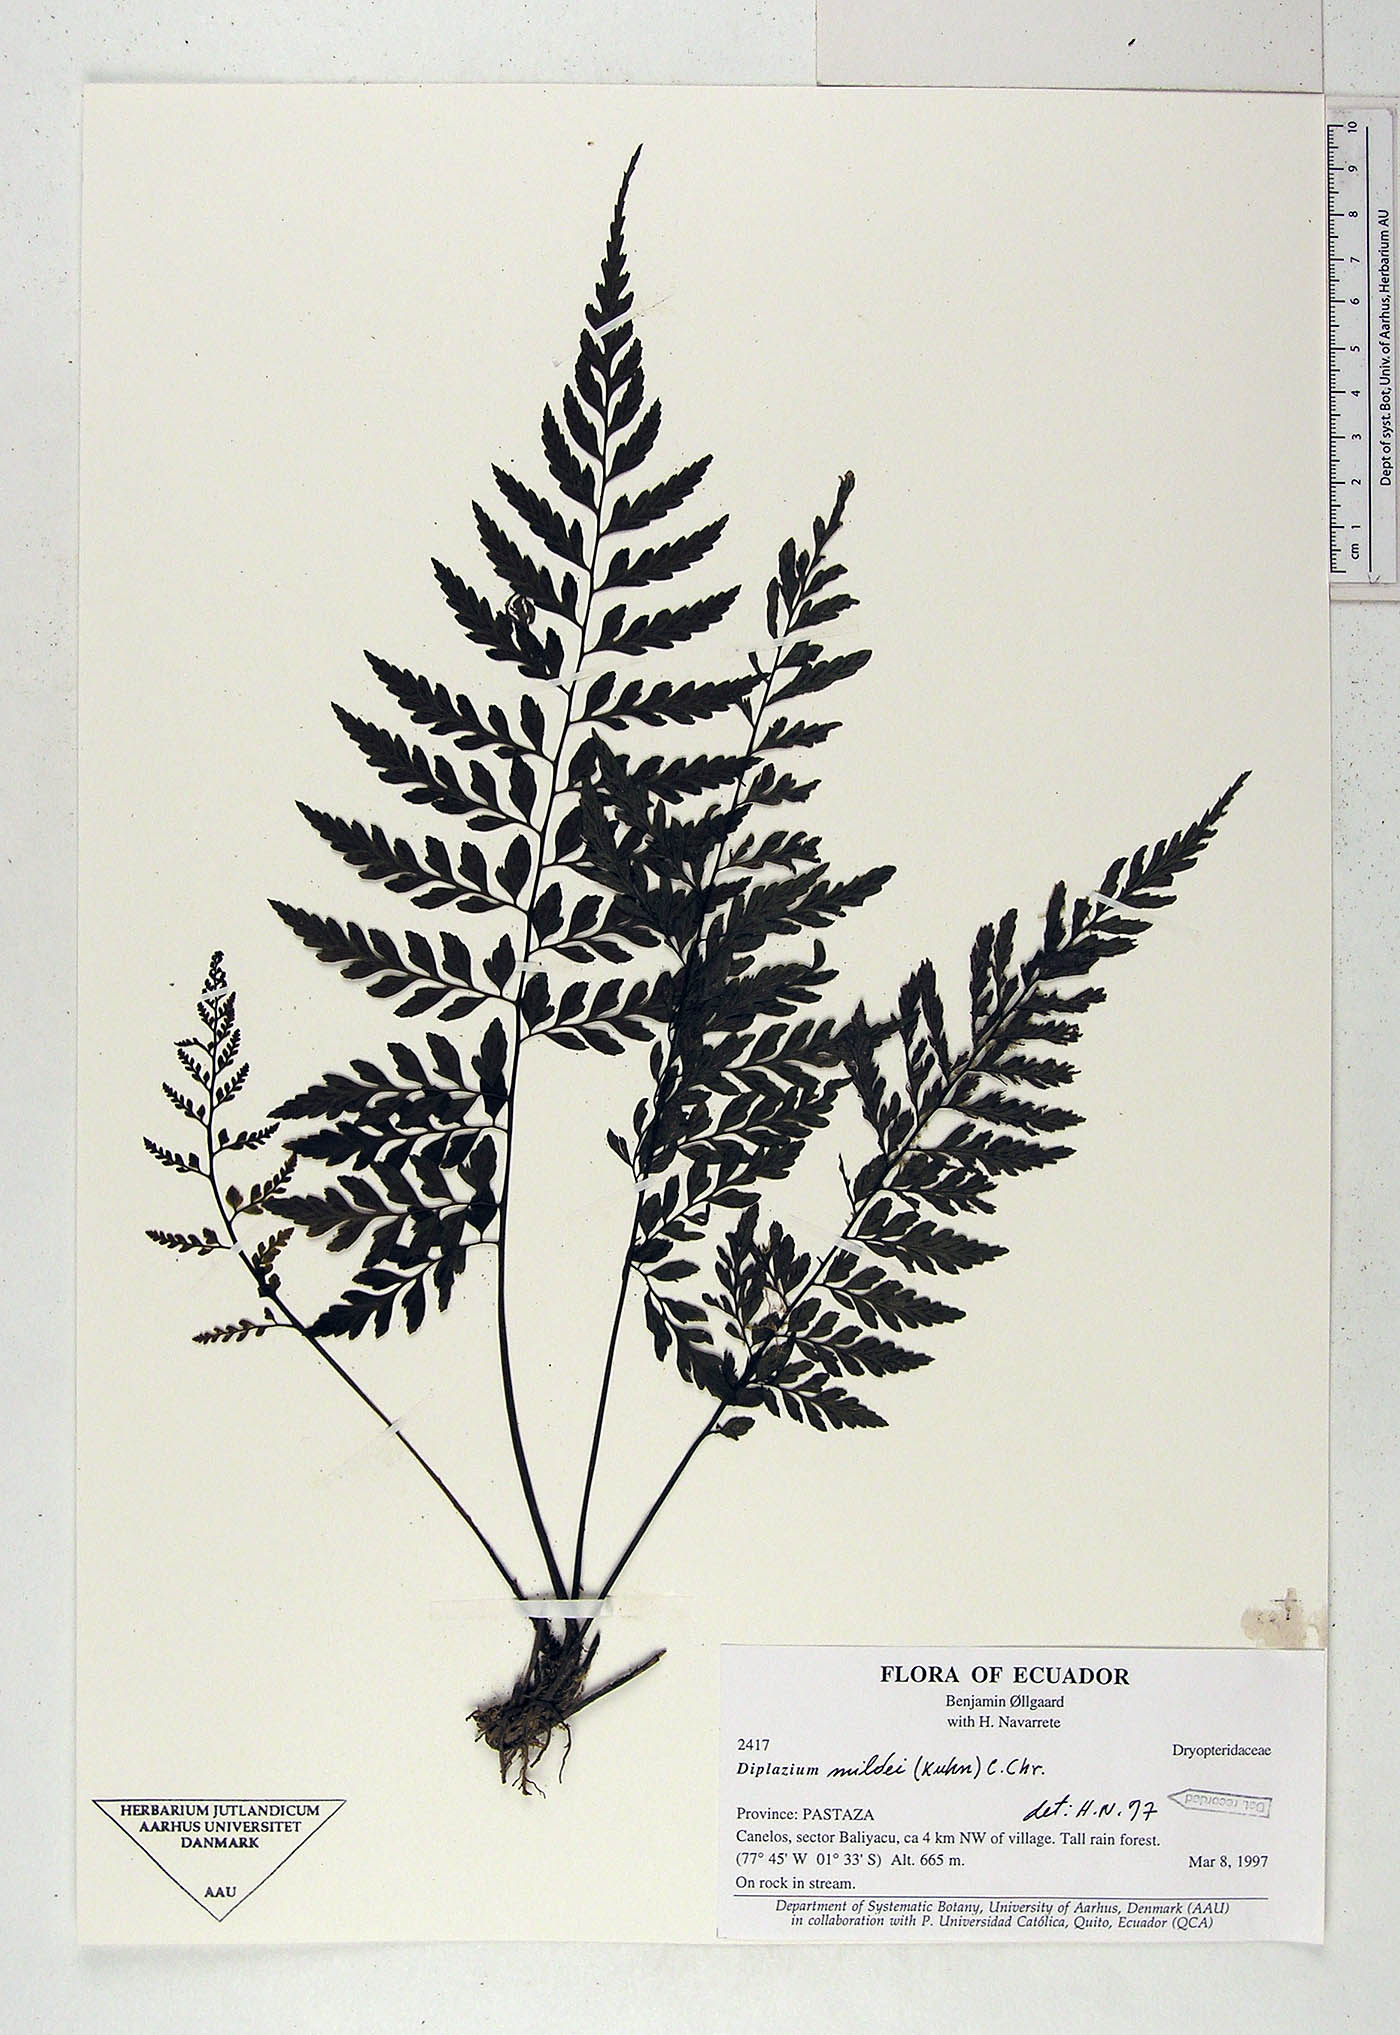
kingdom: Plantae
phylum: Tracheophyta
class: Polypodiopsida
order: Polypodiales
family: Athyriaceae
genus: Diplazium
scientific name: Diplazium mildei
